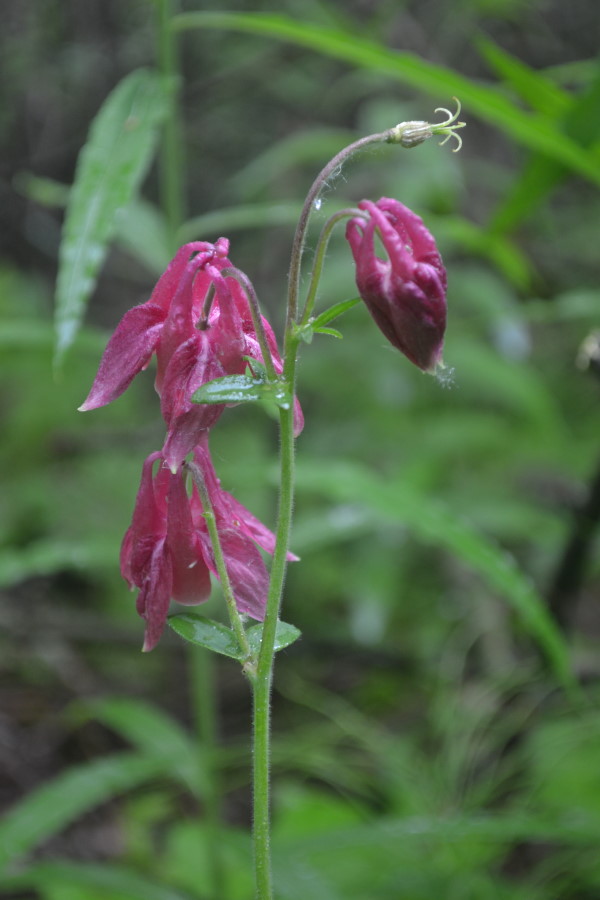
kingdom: Plantae
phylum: Tracheophyta
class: Magnoliopsida
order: Ranunculales
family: Ranunculaceae
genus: Aquilegia
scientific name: Aquilegia vulgaris
